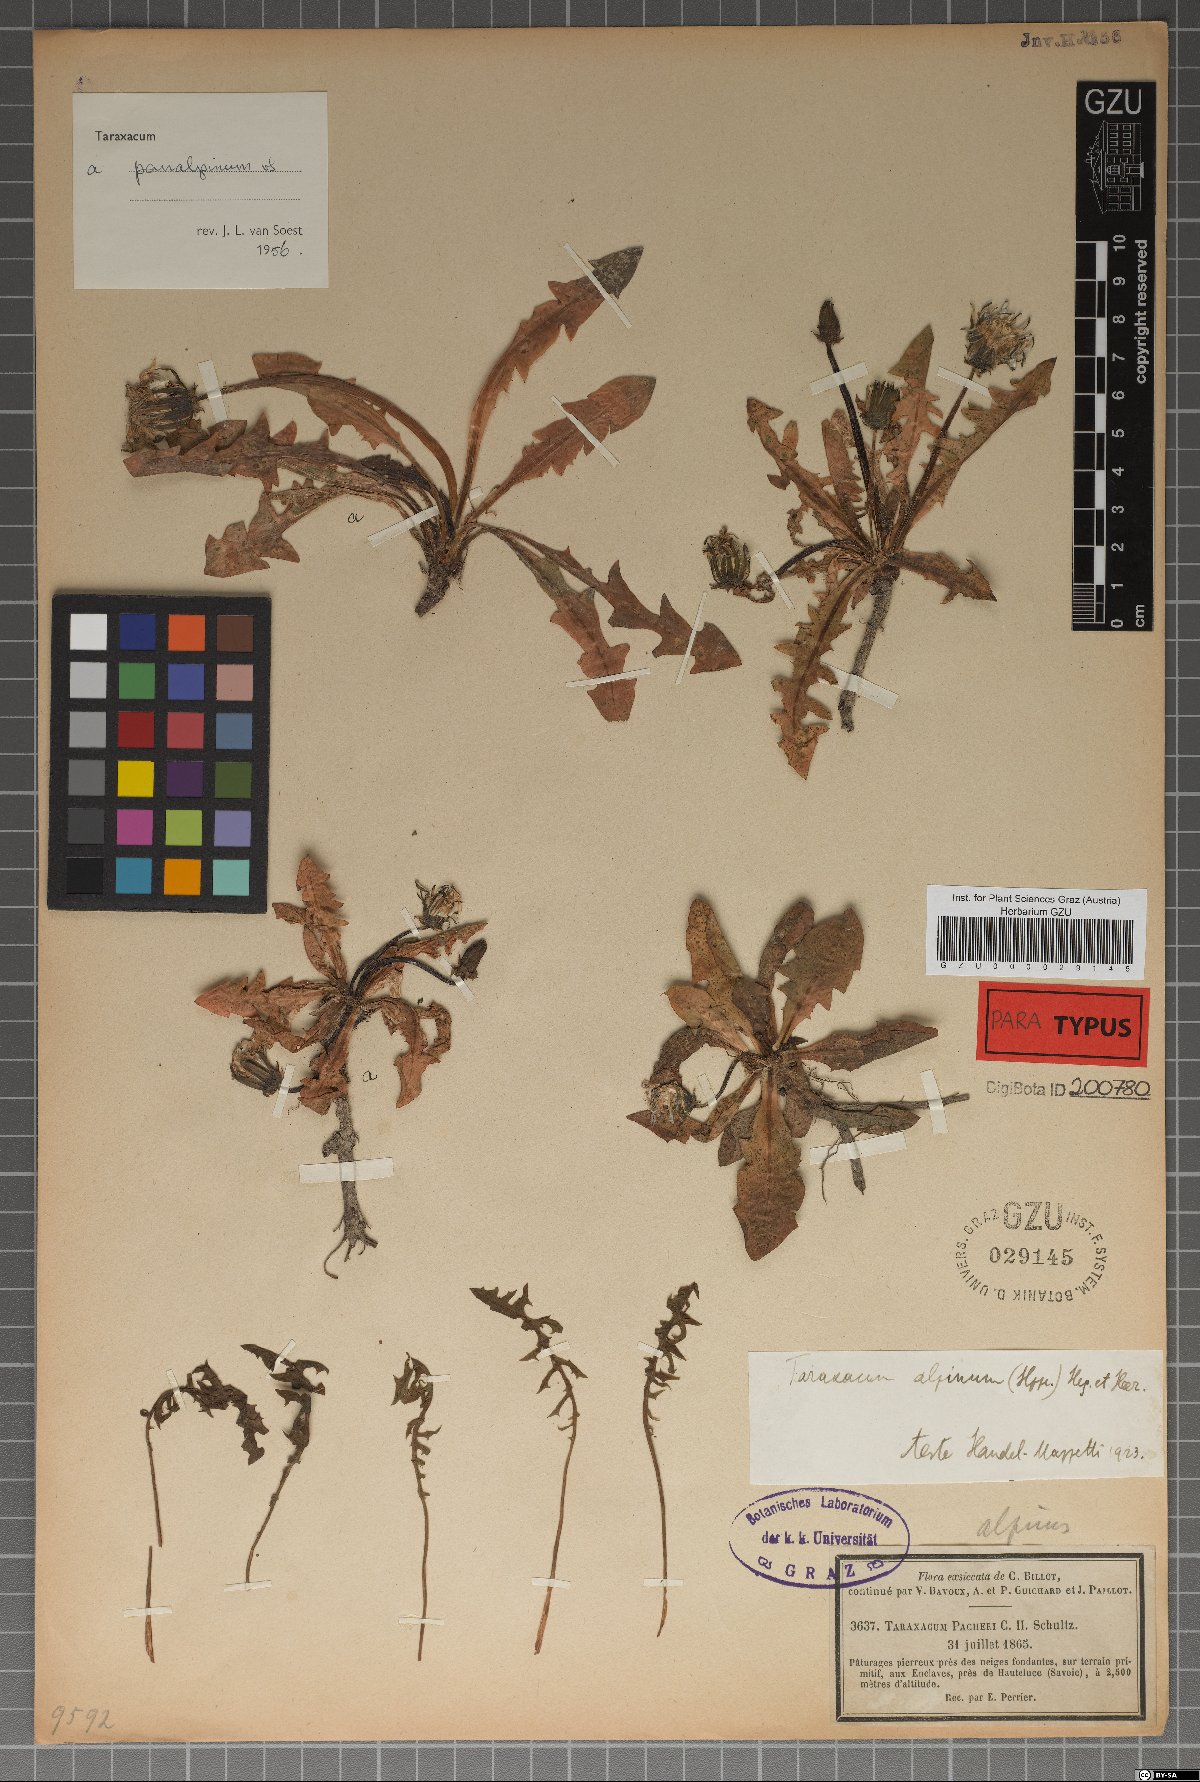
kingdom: Plantae
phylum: Tracheophyta
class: Magnoliopsida
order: Asterales
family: Asteraceae
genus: Taraxacum
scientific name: Taraxacum panalpinum
